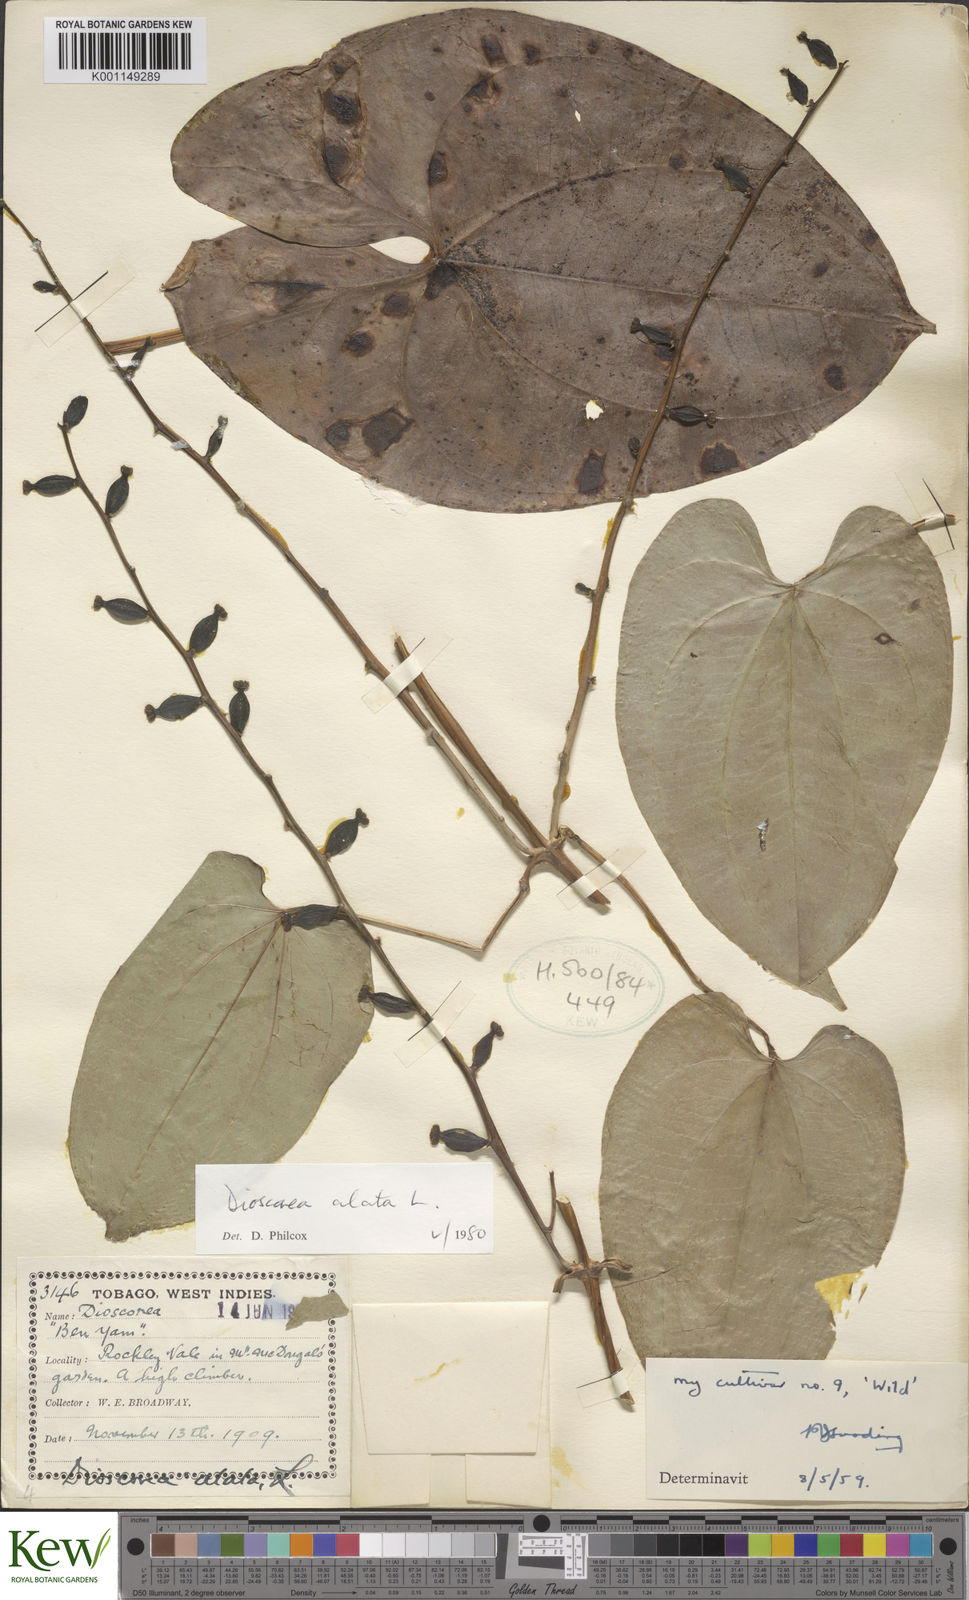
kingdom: Plantae
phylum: Tracheophyta
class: Liliopsida
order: Dioscoreales
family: Dioscoreaceae
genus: Dioscorea
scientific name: Dioscorea alata
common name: Water yam
